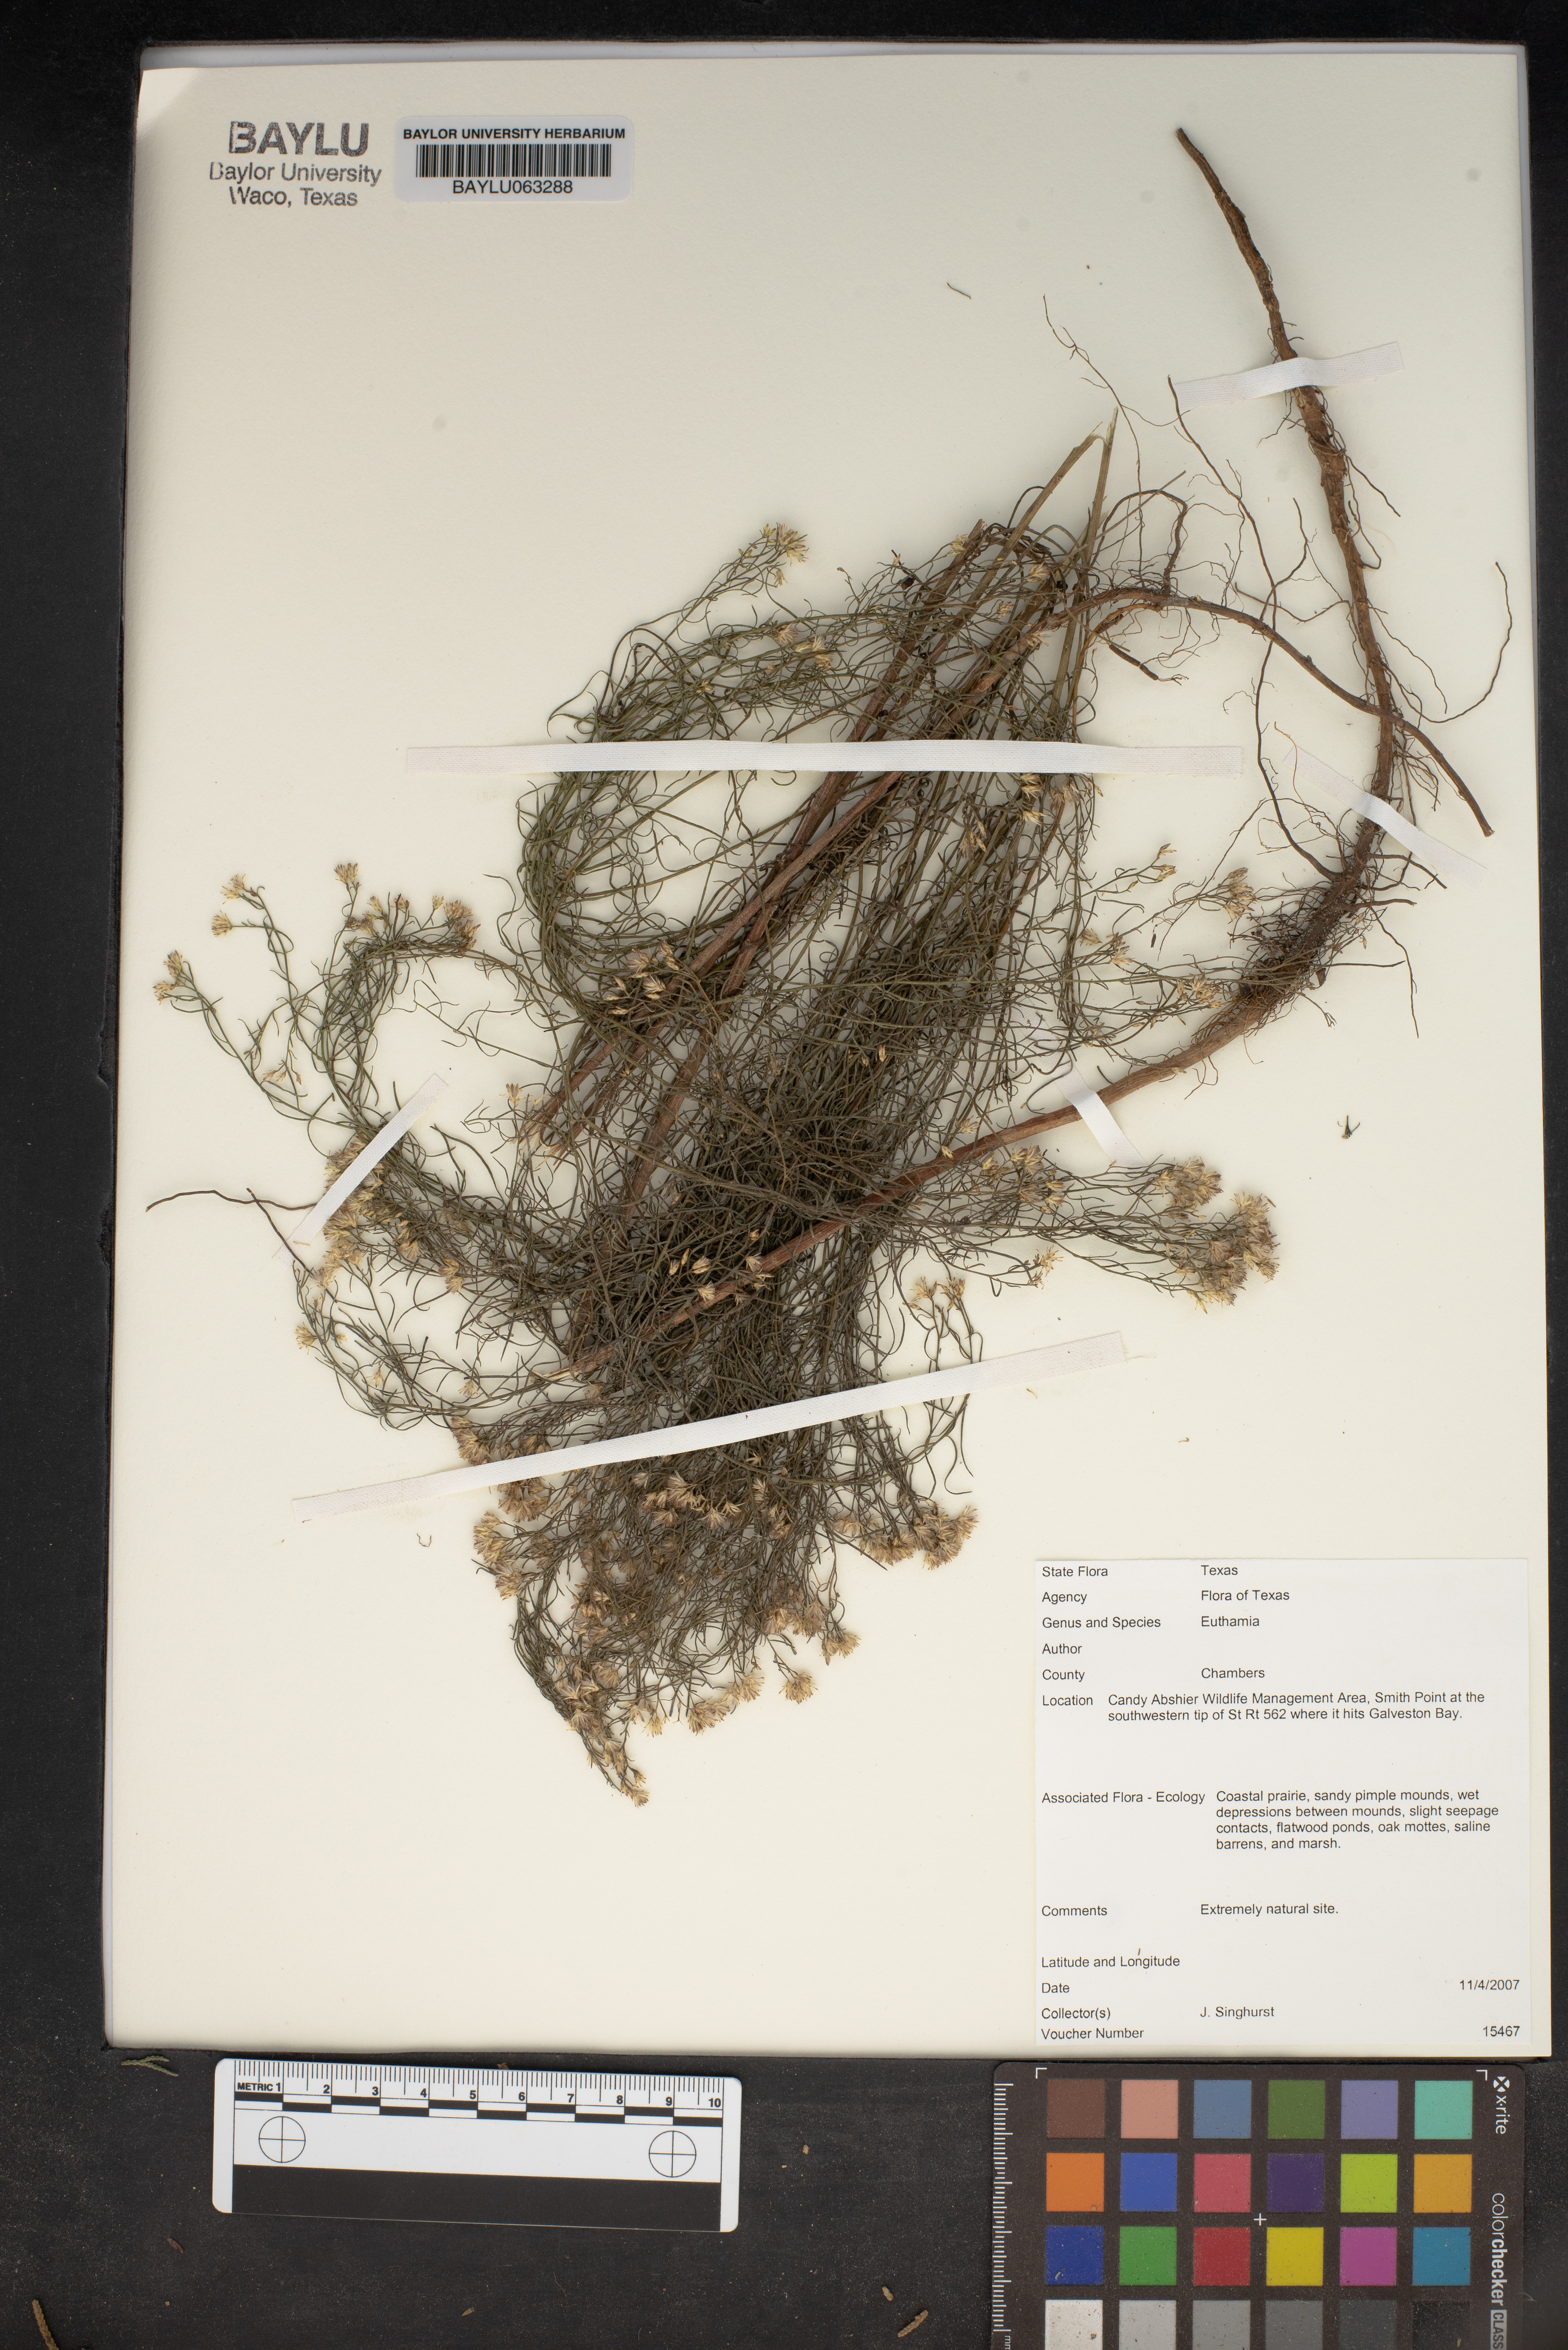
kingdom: Plantae
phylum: Tracheophyta
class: Magnoliopsida
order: Asterales
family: Asteraceae
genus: Euthamia
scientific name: Euthamia
